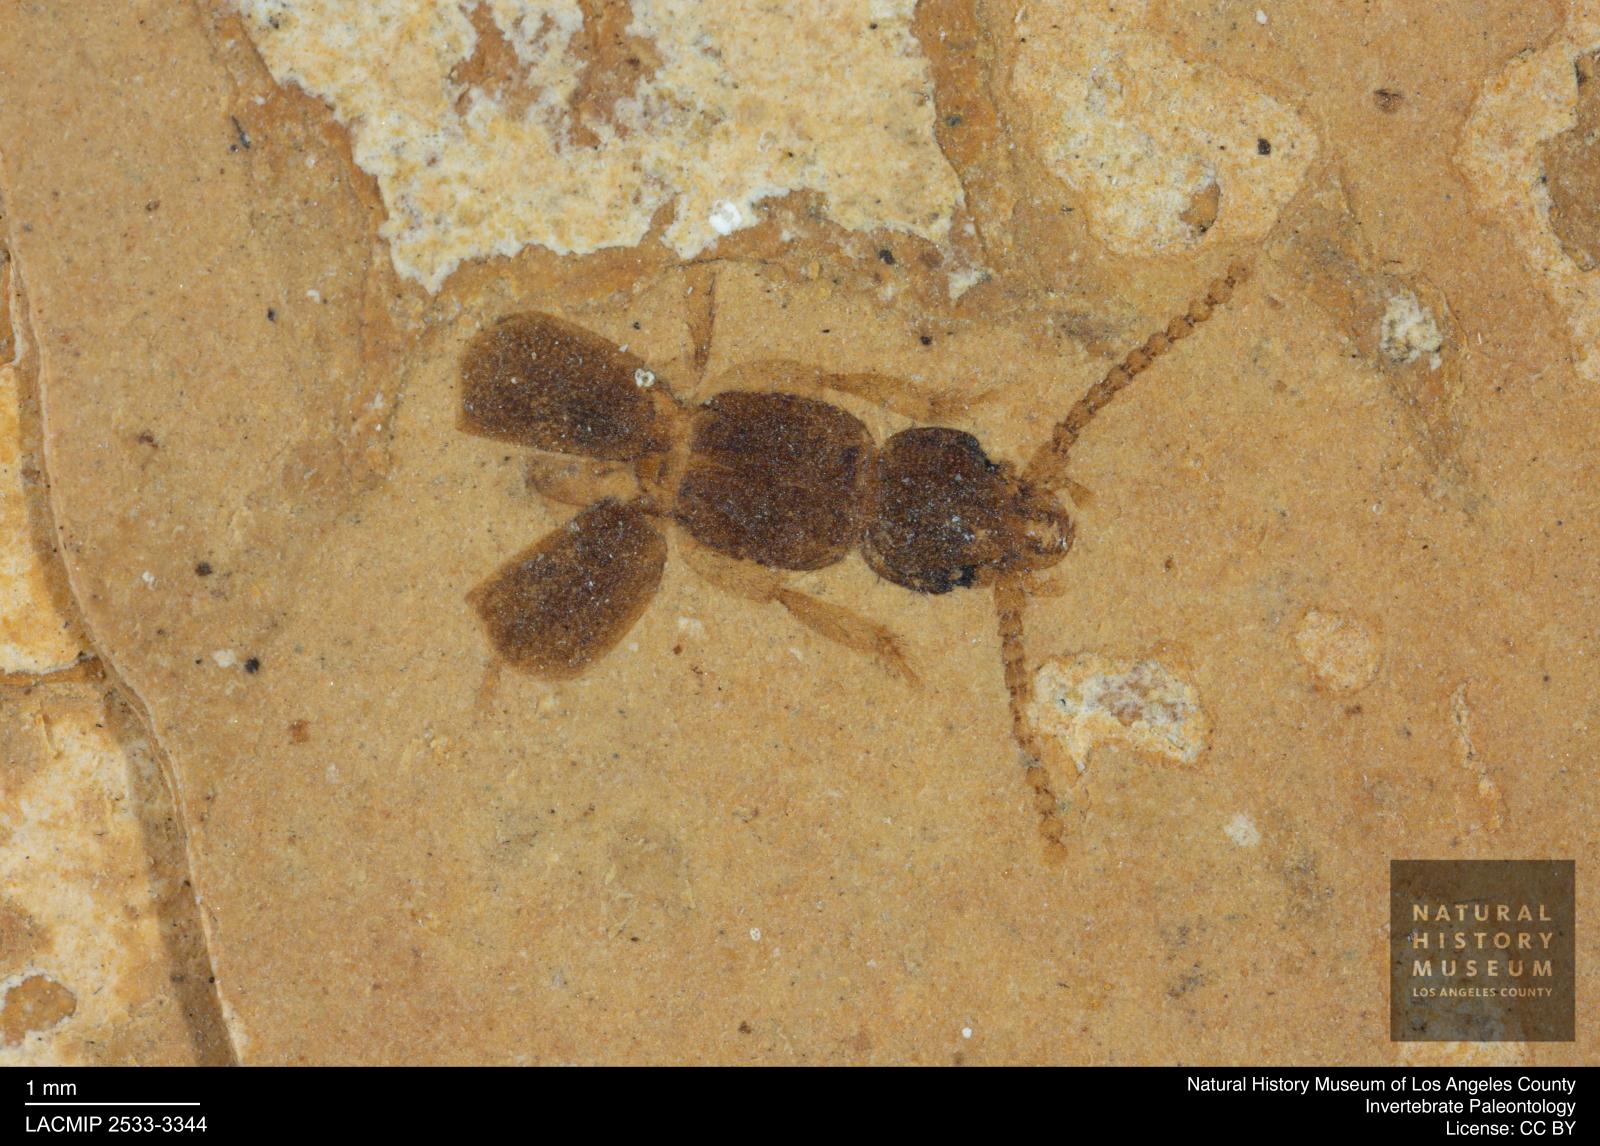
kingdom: Animalia
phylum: Arthropoda
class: Insecta
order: Coleoptera
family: Staphylinidae
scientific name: Staphylinidae
